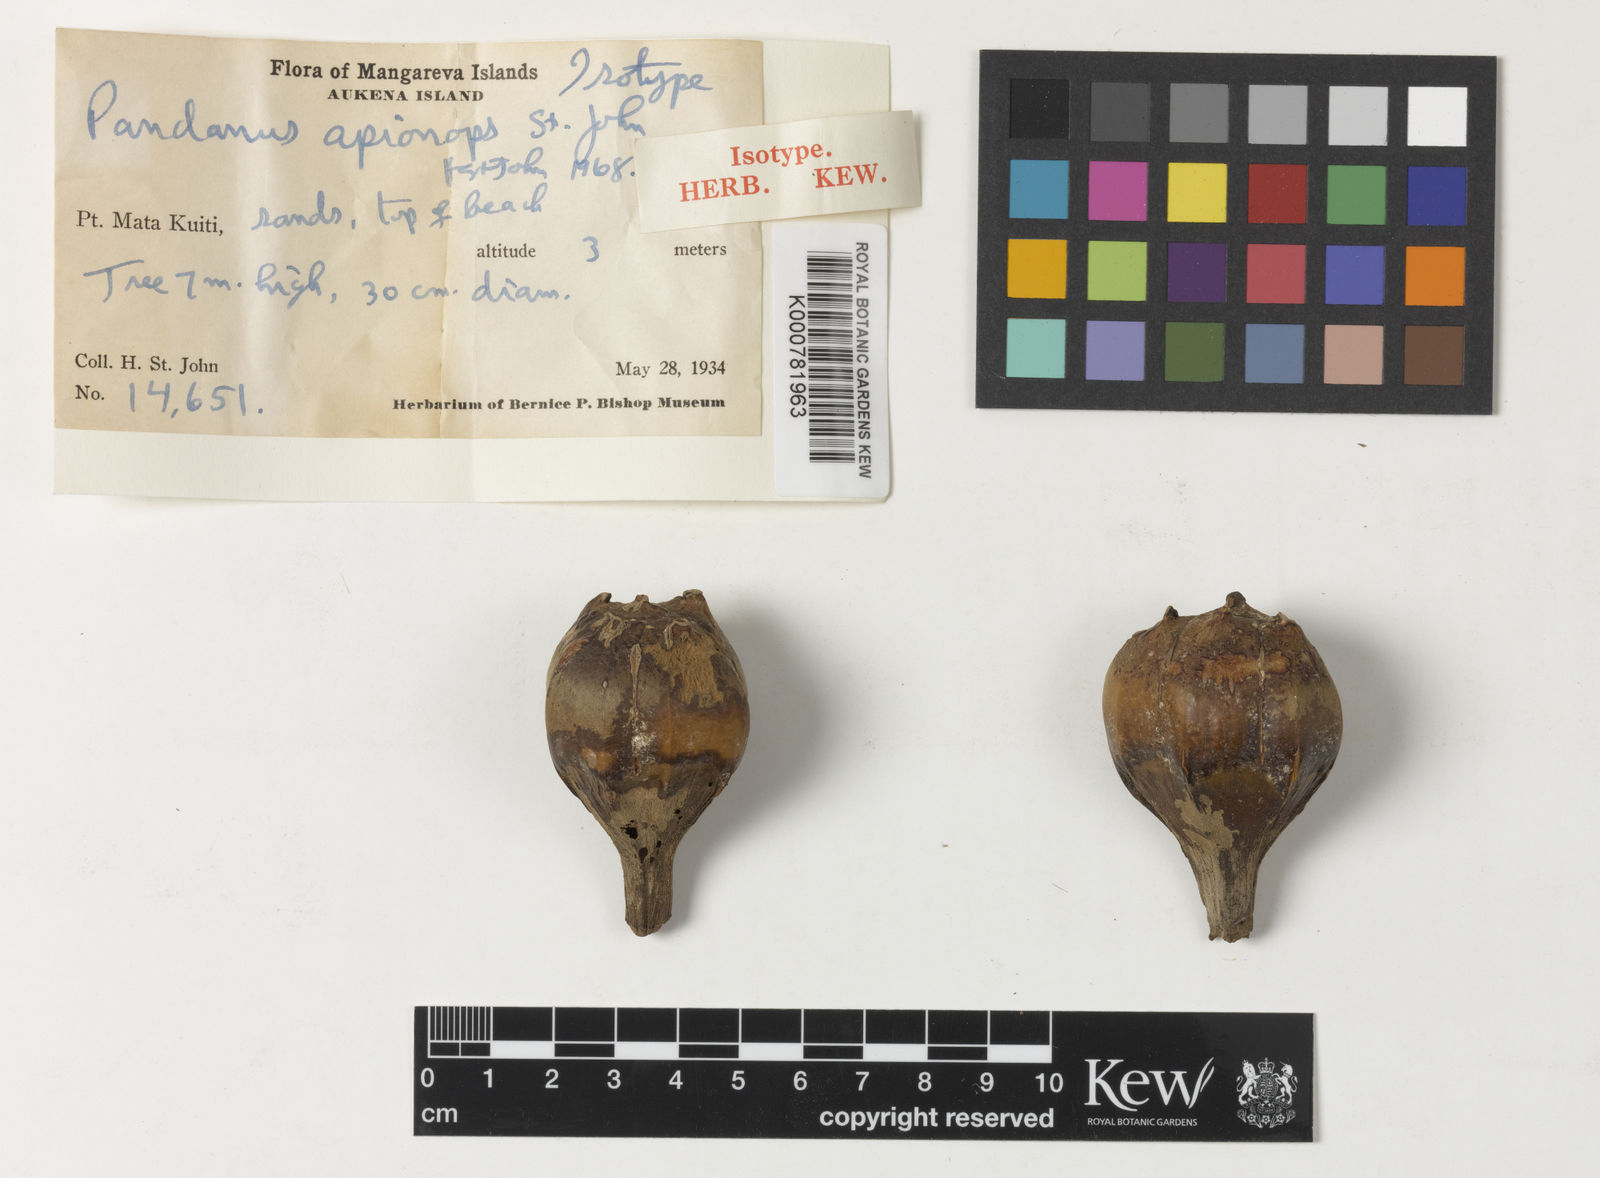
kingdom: Plantae
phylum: Tracheophyta
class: Liliopsida
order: Pandanales
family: Pandanaceae
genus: Pandanus
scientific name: Pandanus tectorius
